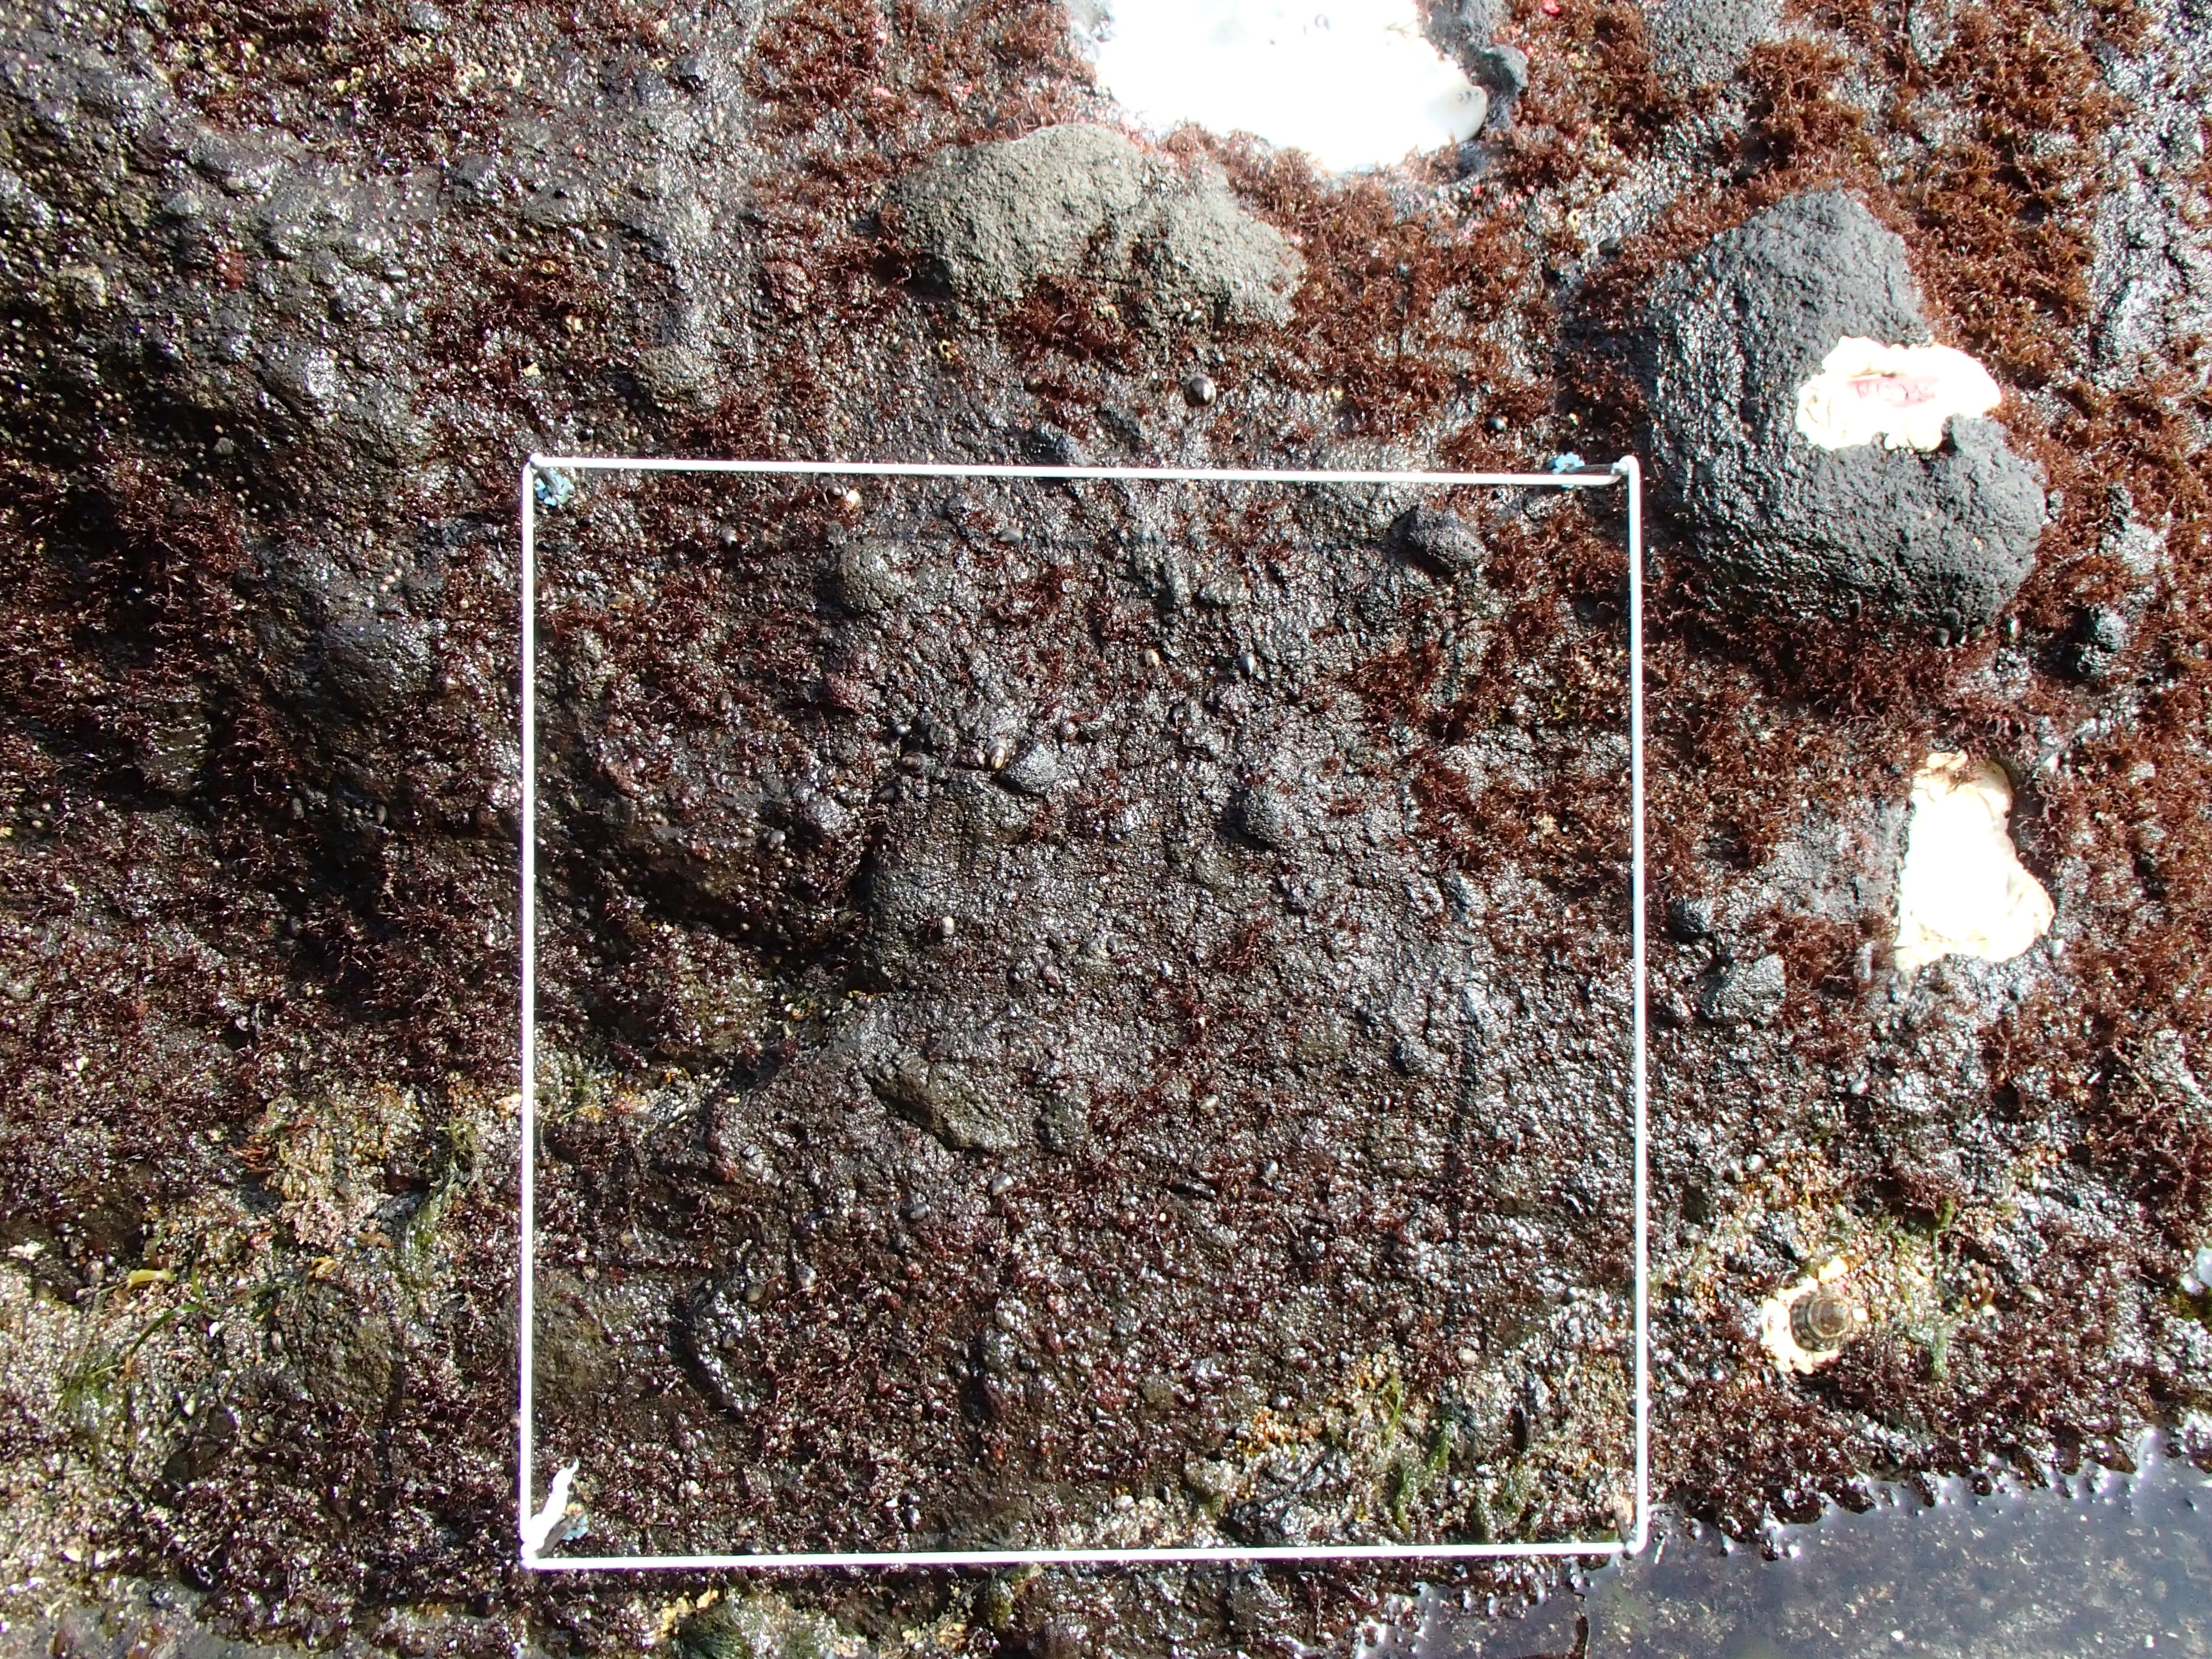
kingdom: Plantae
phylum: Rhodophyta
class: Florideophyceae
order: Corallinales
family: Corallinaceae
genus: Corallina
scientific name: Corallina pilulifera
